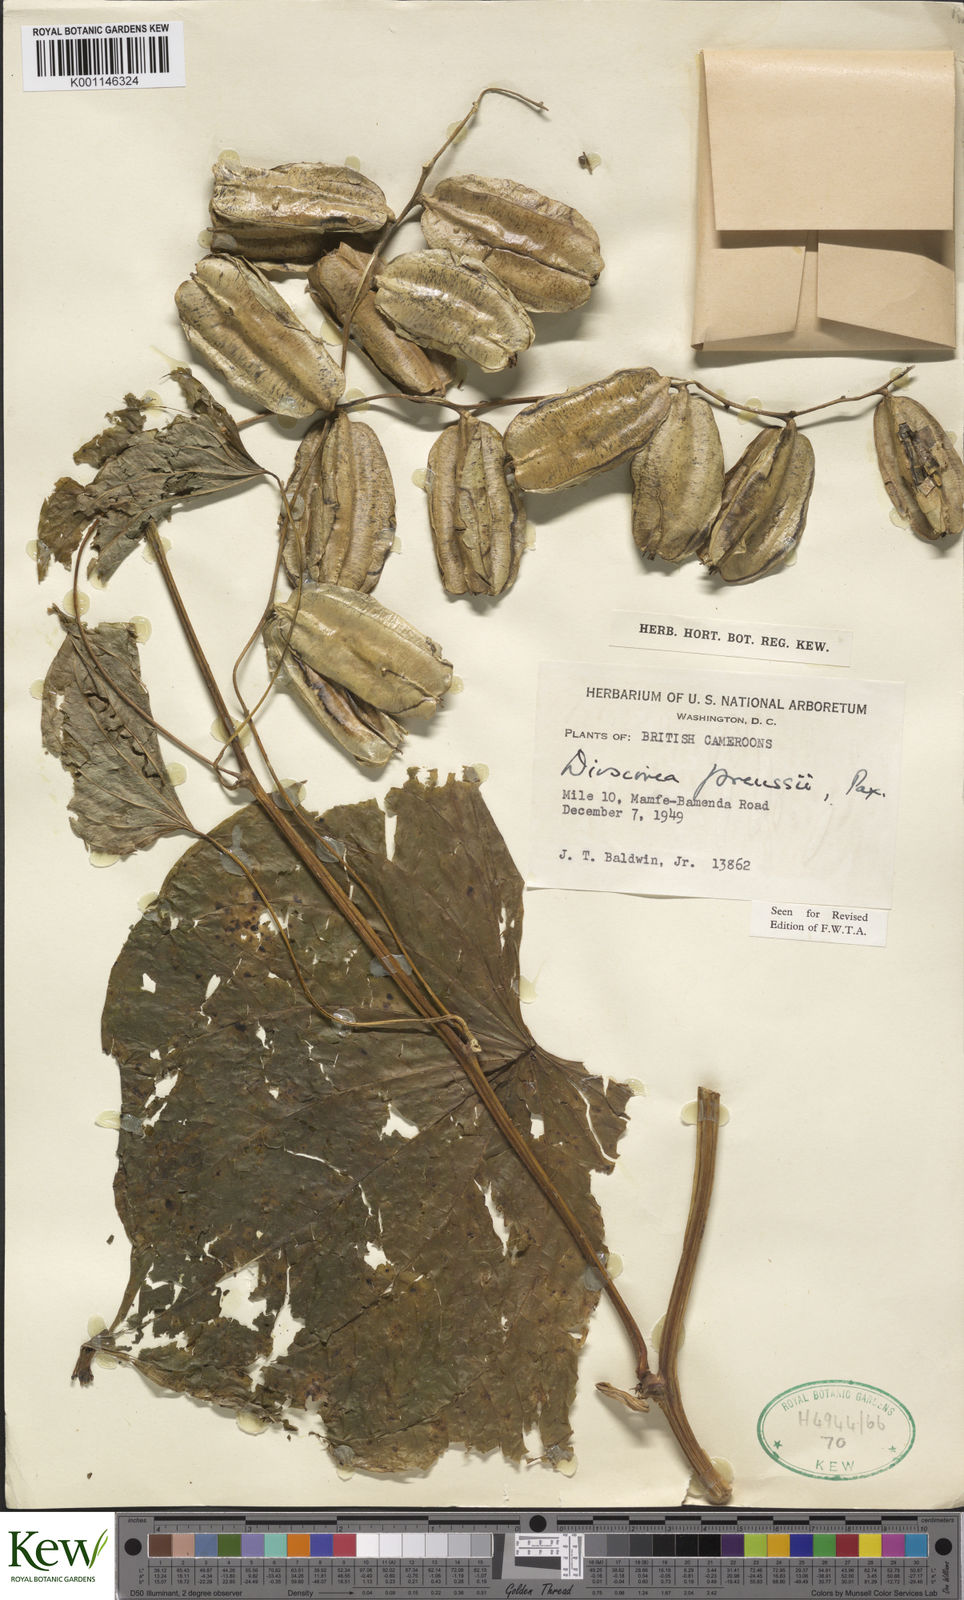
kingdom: Plantae
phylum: Tracheophyta
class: Liliopsida
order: Dioscoreales
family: Dioscoreaceae
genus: Dioscorea
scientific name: Dioscorea preussii
